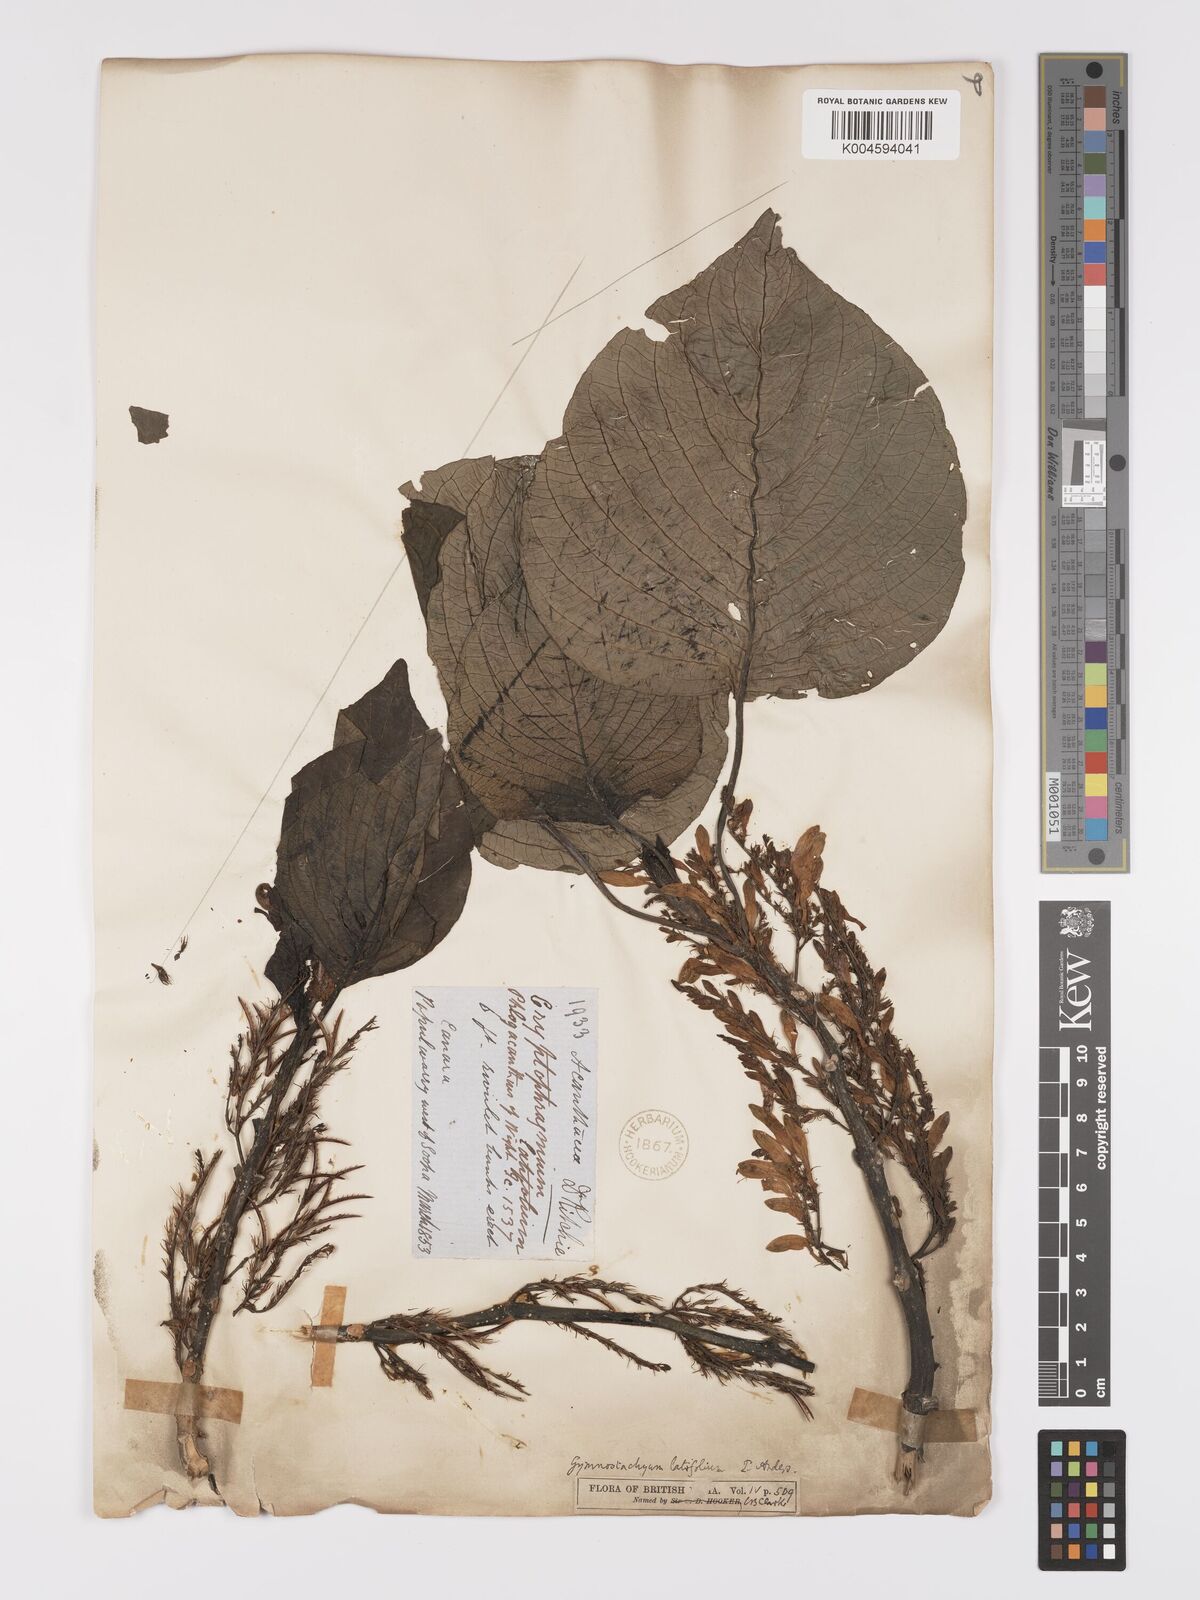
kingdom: Plantae
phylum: Tracheophyta
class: Magnoliopsida
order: Lamiales
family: Acanthaceae
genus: Gymnostachyum
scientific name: Gymnostachyum latifolium
